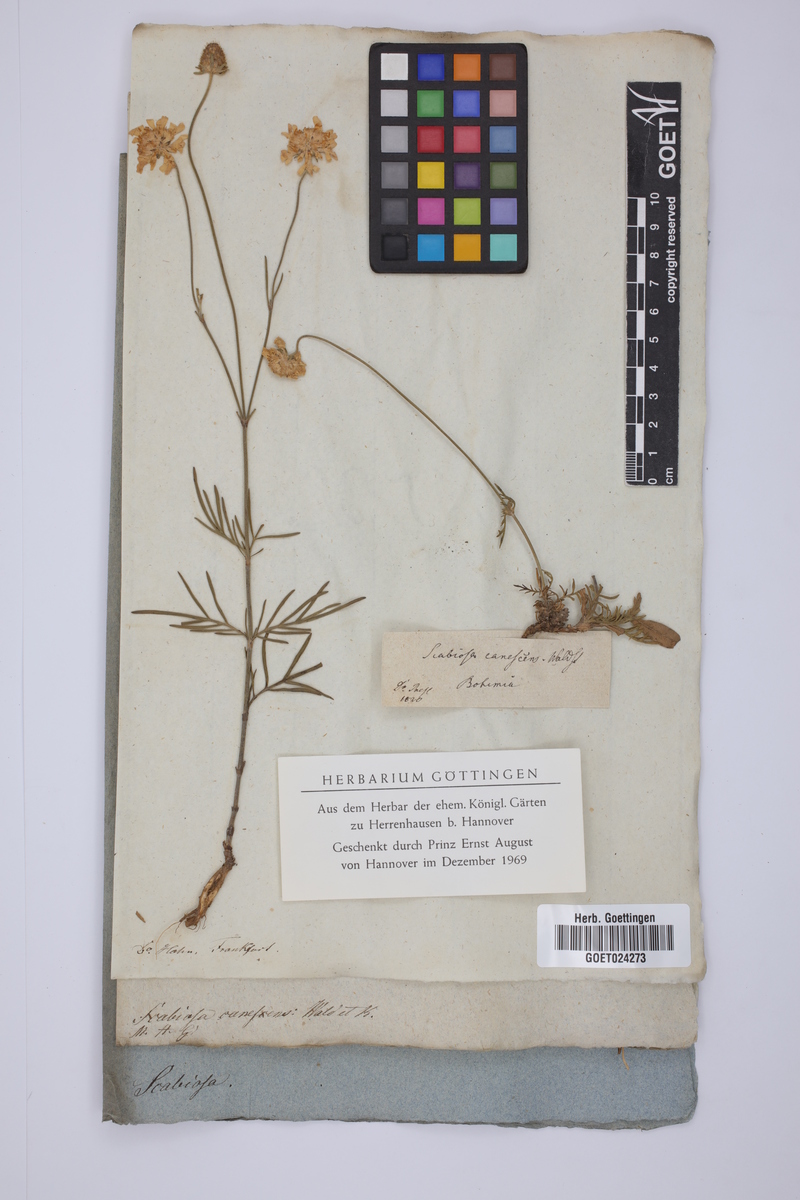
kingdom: Plantae
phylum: Tracheophyta
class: Magnoliopsida
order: Dipsacales
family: Caprifoliaceae
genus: Scabiosa
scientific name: Scabiosa canescens
